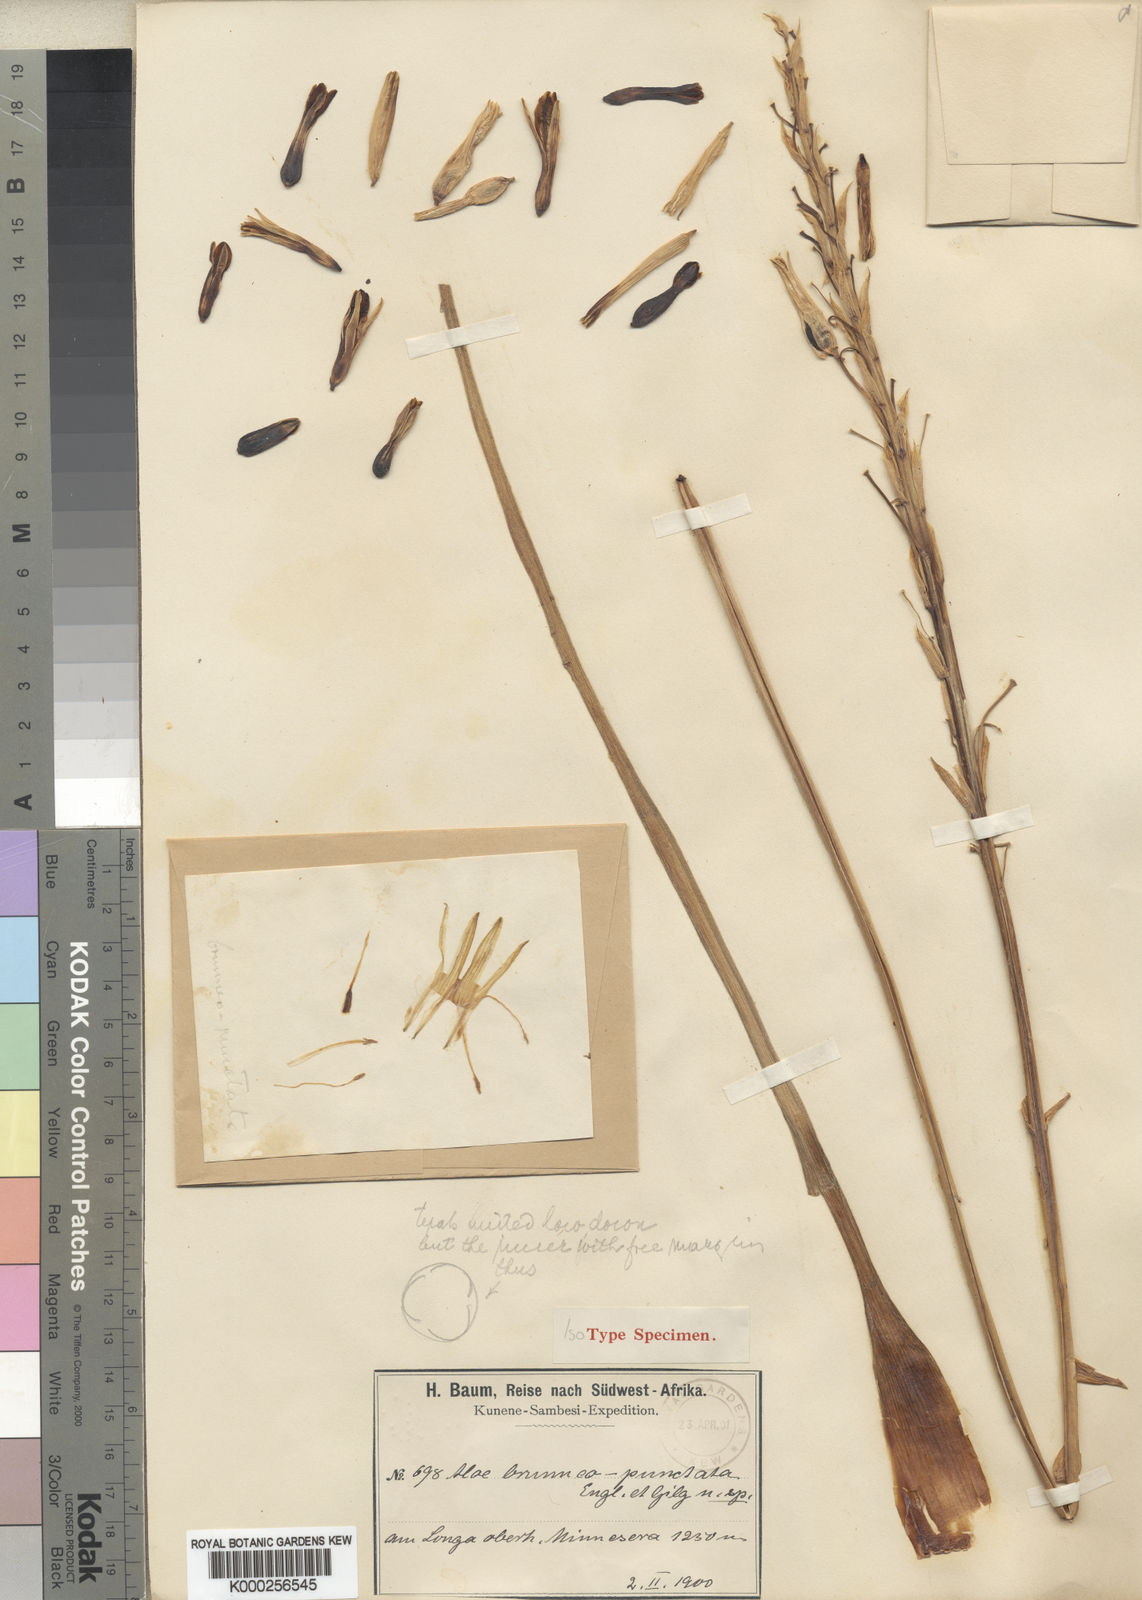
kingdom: Plantae
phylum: Tracheophyta
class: Liliopsida
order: Asparagales
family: Asphodelaceae
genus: Aloe
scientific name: Aloe nuttii
